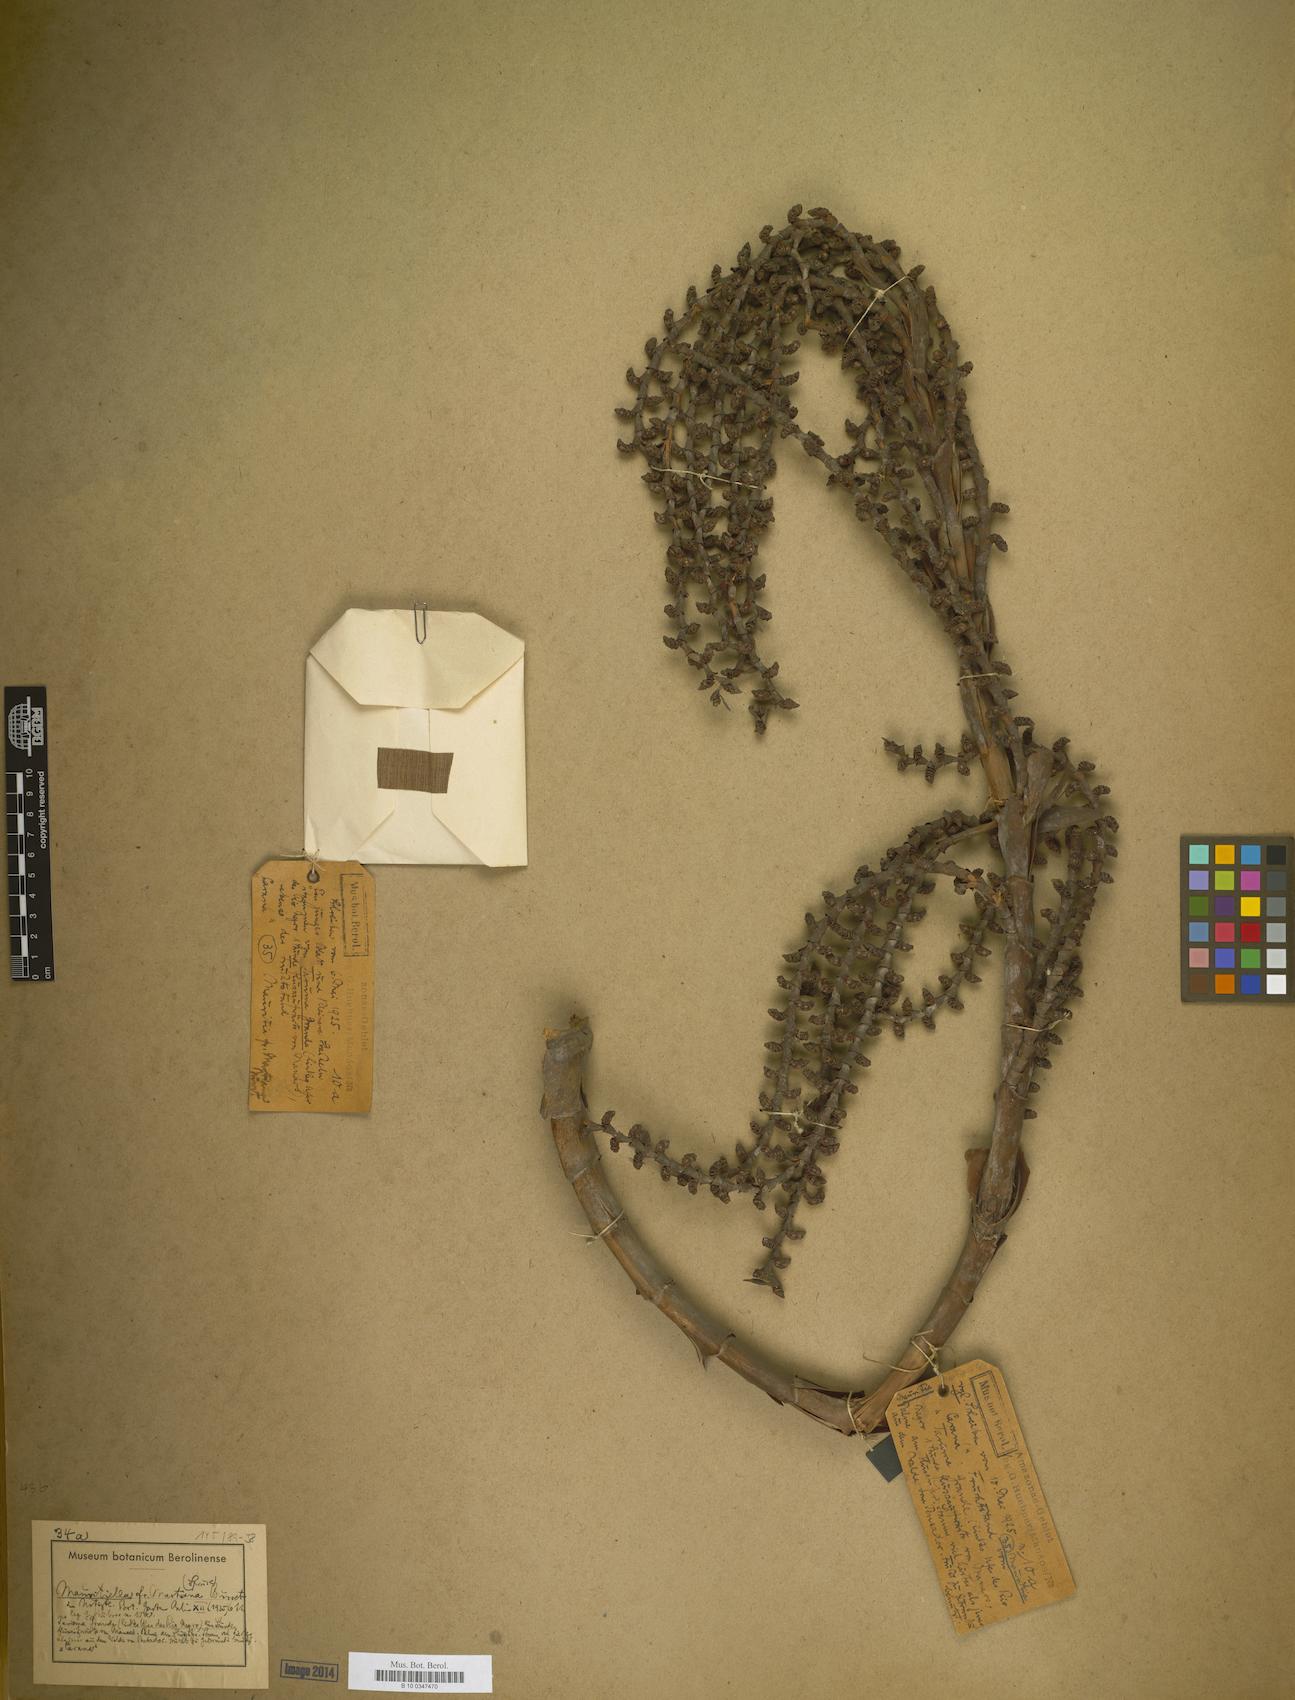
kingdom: Plantae
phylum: Tracheophyta
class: Liliopsida
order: Arecales
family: Arecaceae
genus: Mauritiella
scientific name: Mauritiella
